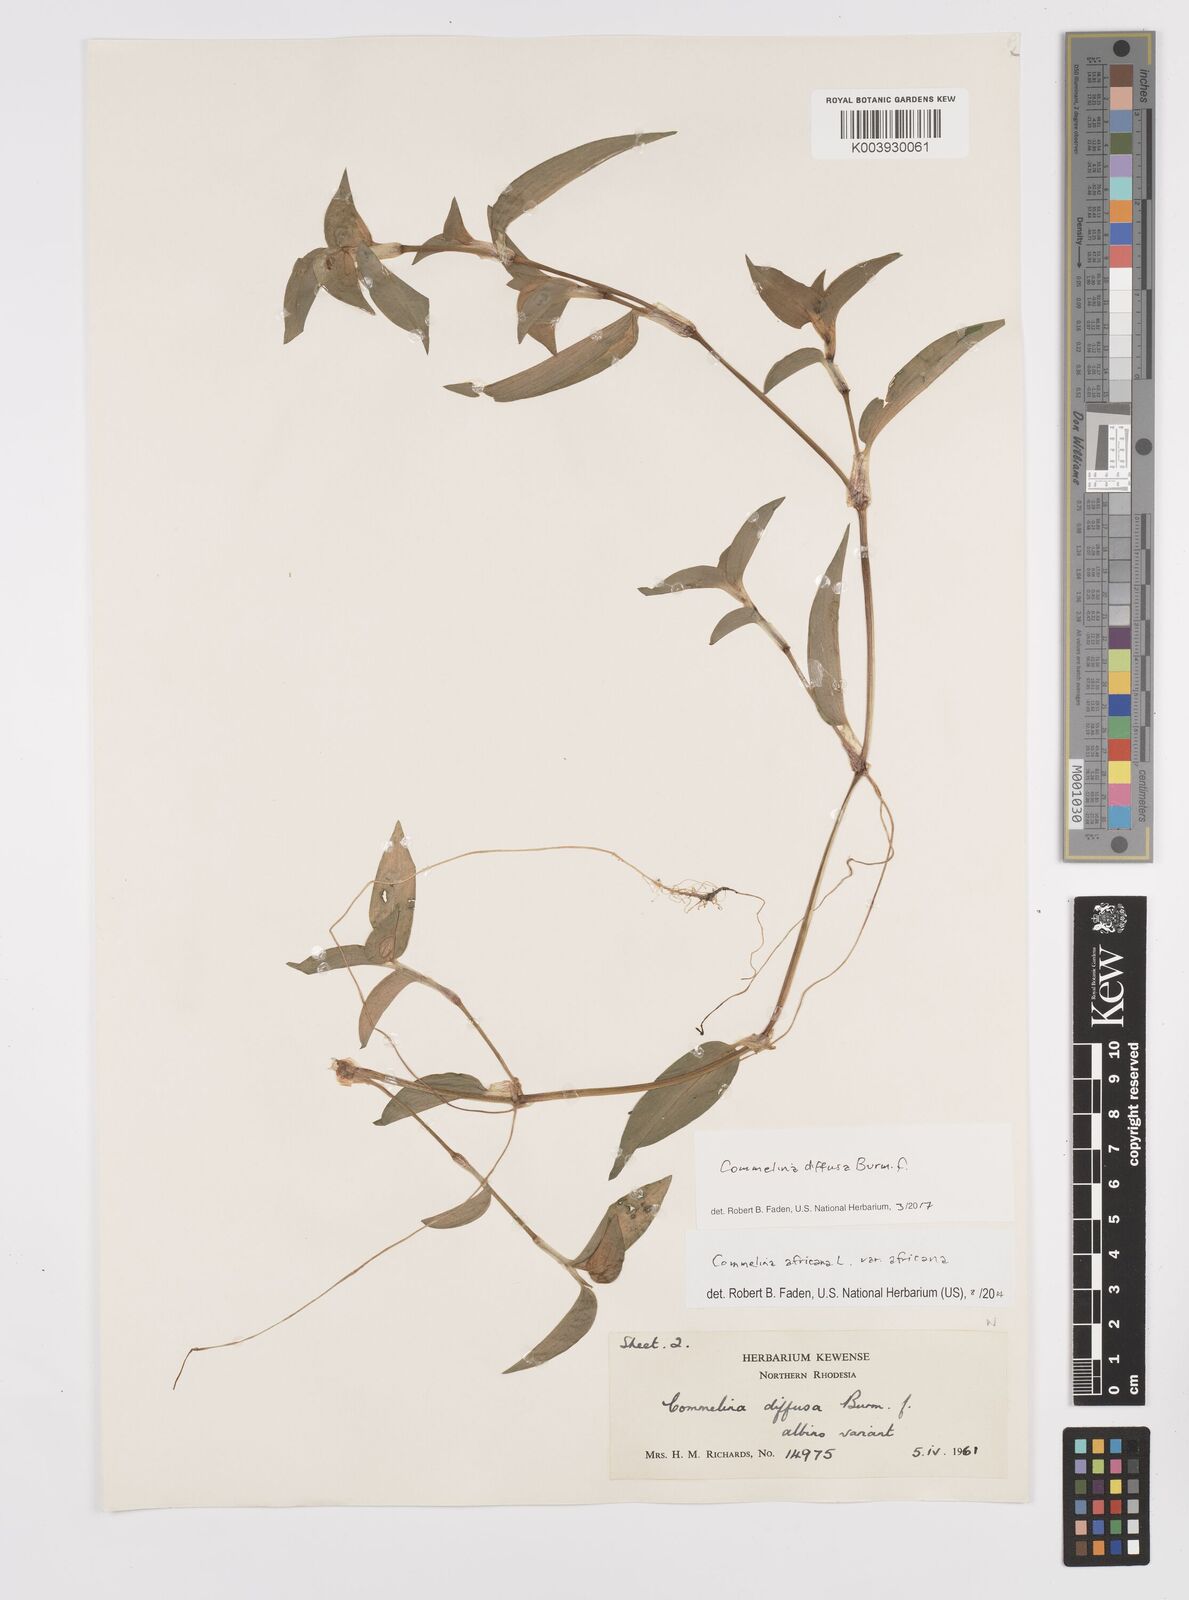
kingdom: Plantae
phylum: Tracheophyta
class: Liliopsida
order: Commelinales
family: Commelinaceae
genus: Commelina
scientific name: Commelina diffusa
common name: Climbing dayflower
